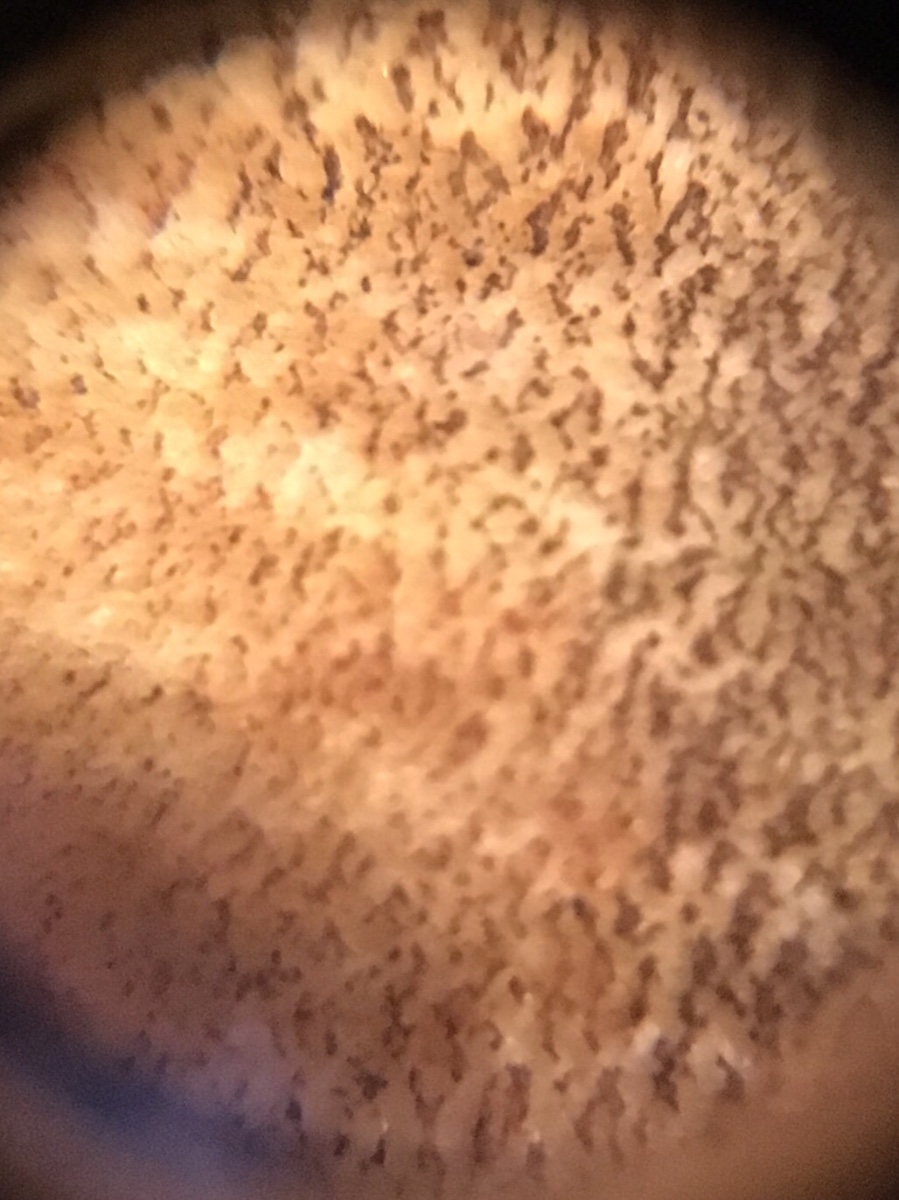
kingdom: Fungi
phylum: Basidiomycota
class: Agaricomycetes
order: Boletales
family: Boletaceae
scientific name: Boletaceae
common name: rørhatfamilien
